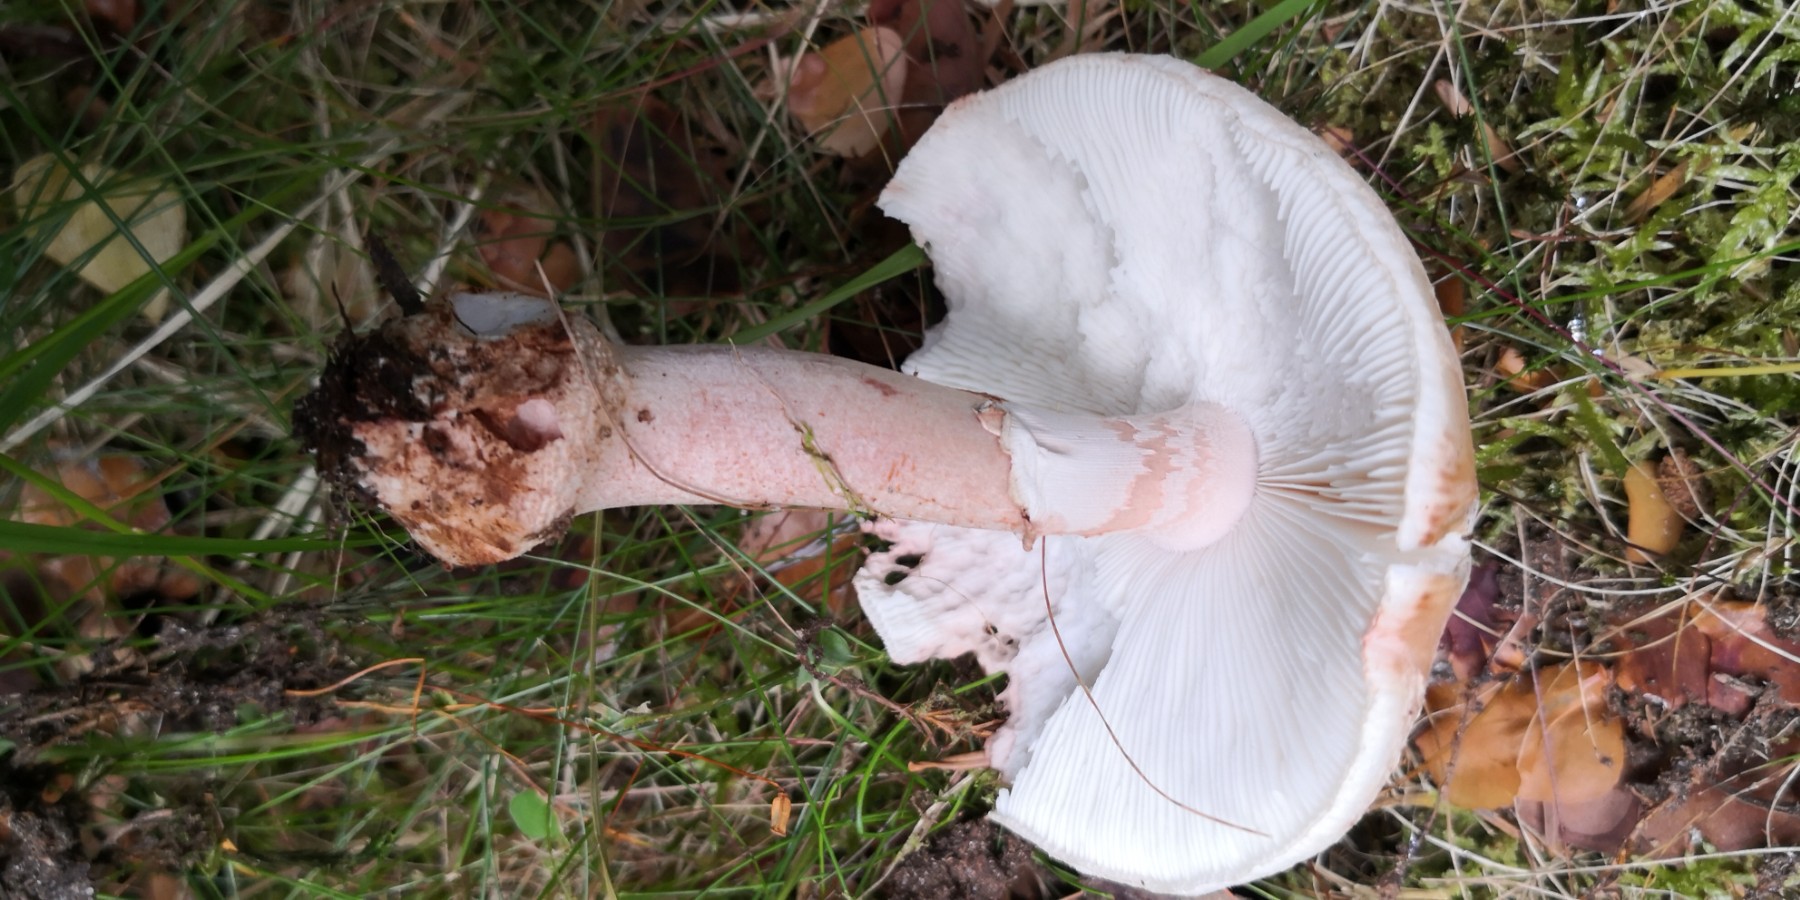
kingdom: Fungi
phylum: Basidiomycota
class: Agaricomycetes
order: Agaricales
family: Amanitaceae
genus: Amanita
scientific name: Amanita rubescens
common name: rødmende fluesvamp
